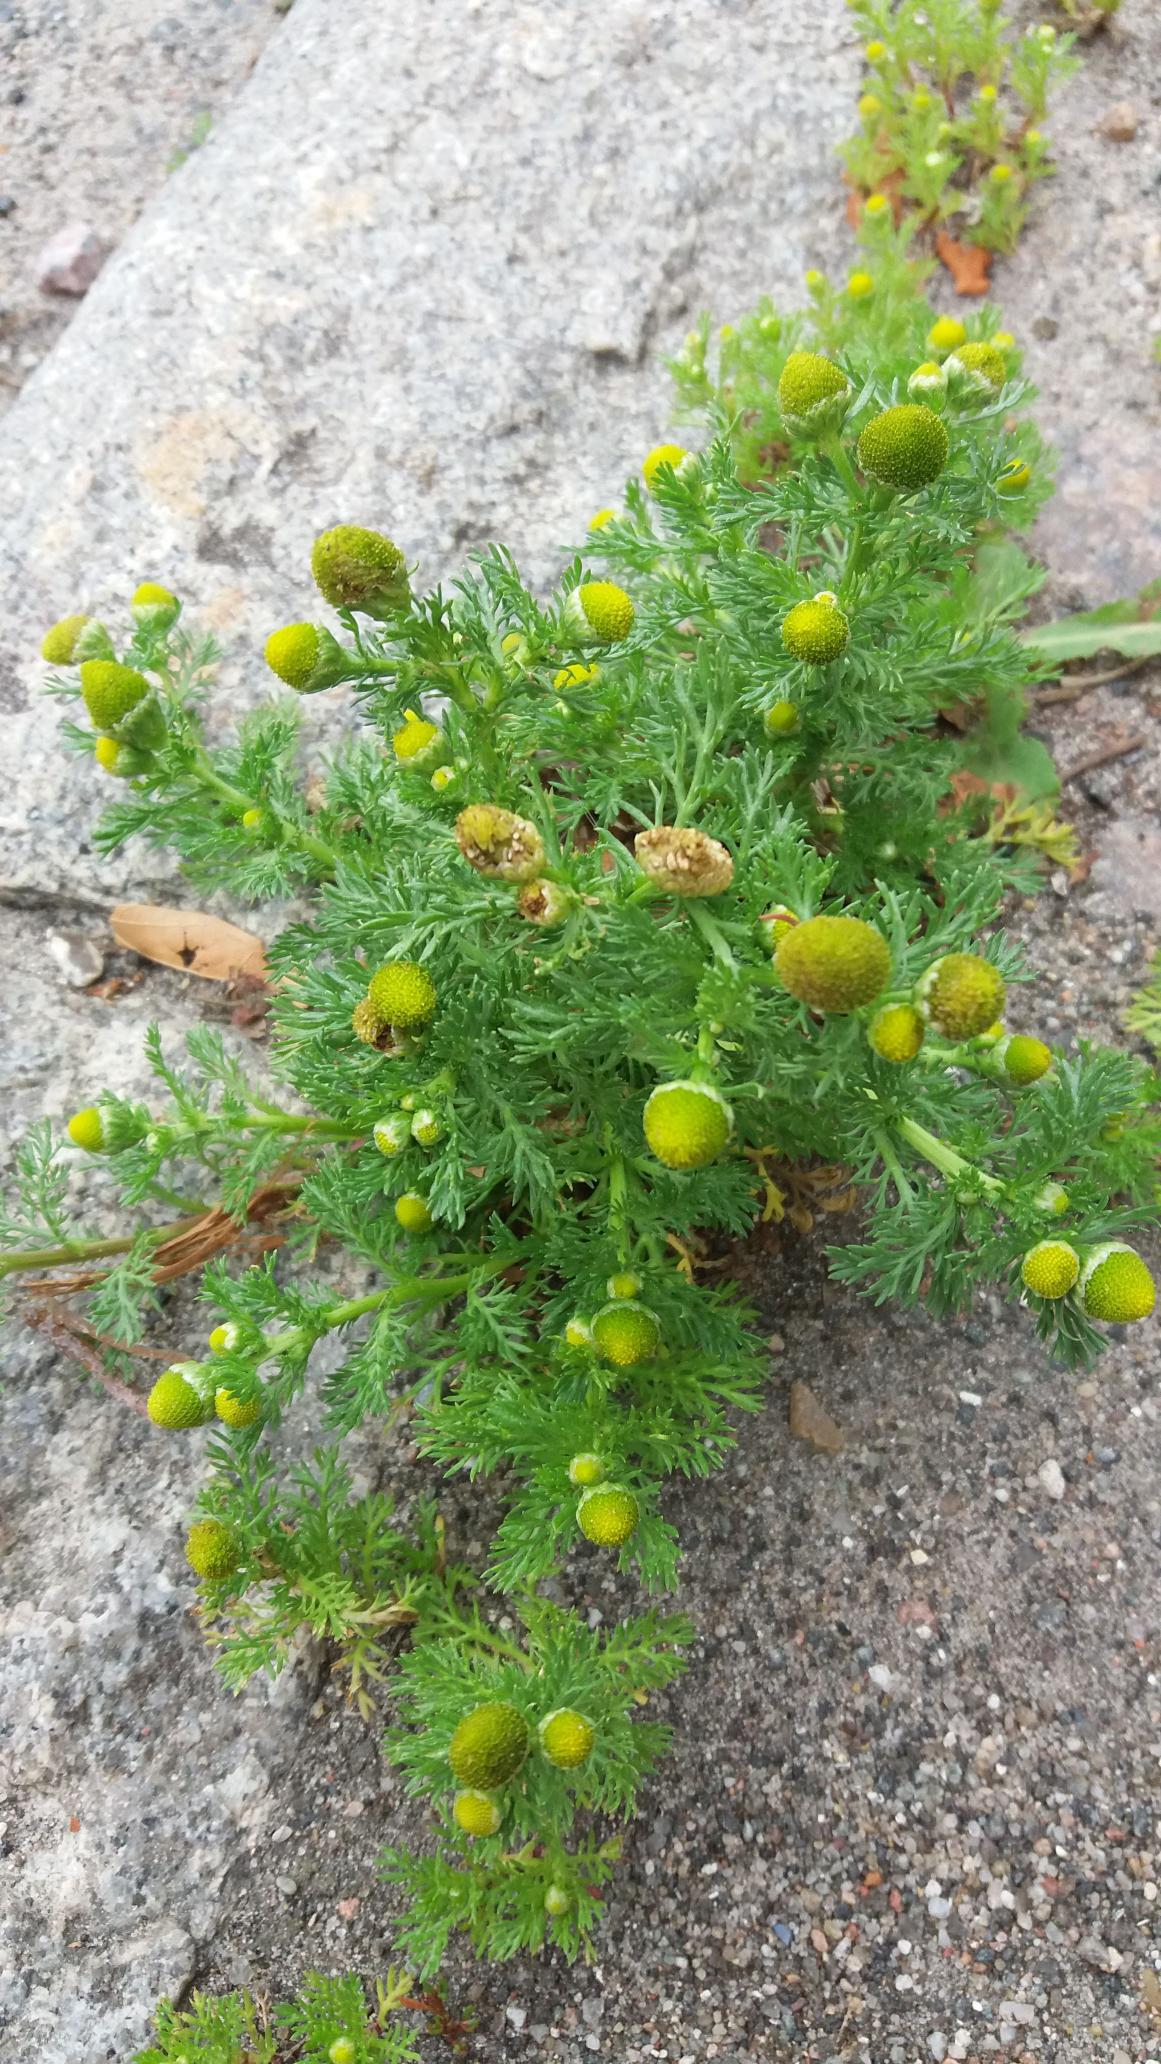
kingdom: Plantae
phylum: Tracheophyta
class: Magnoliopsida
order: Asterales
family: Asteraceae
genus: Matricaria
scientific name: Matricaria discoidea
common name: Skive-kamille
